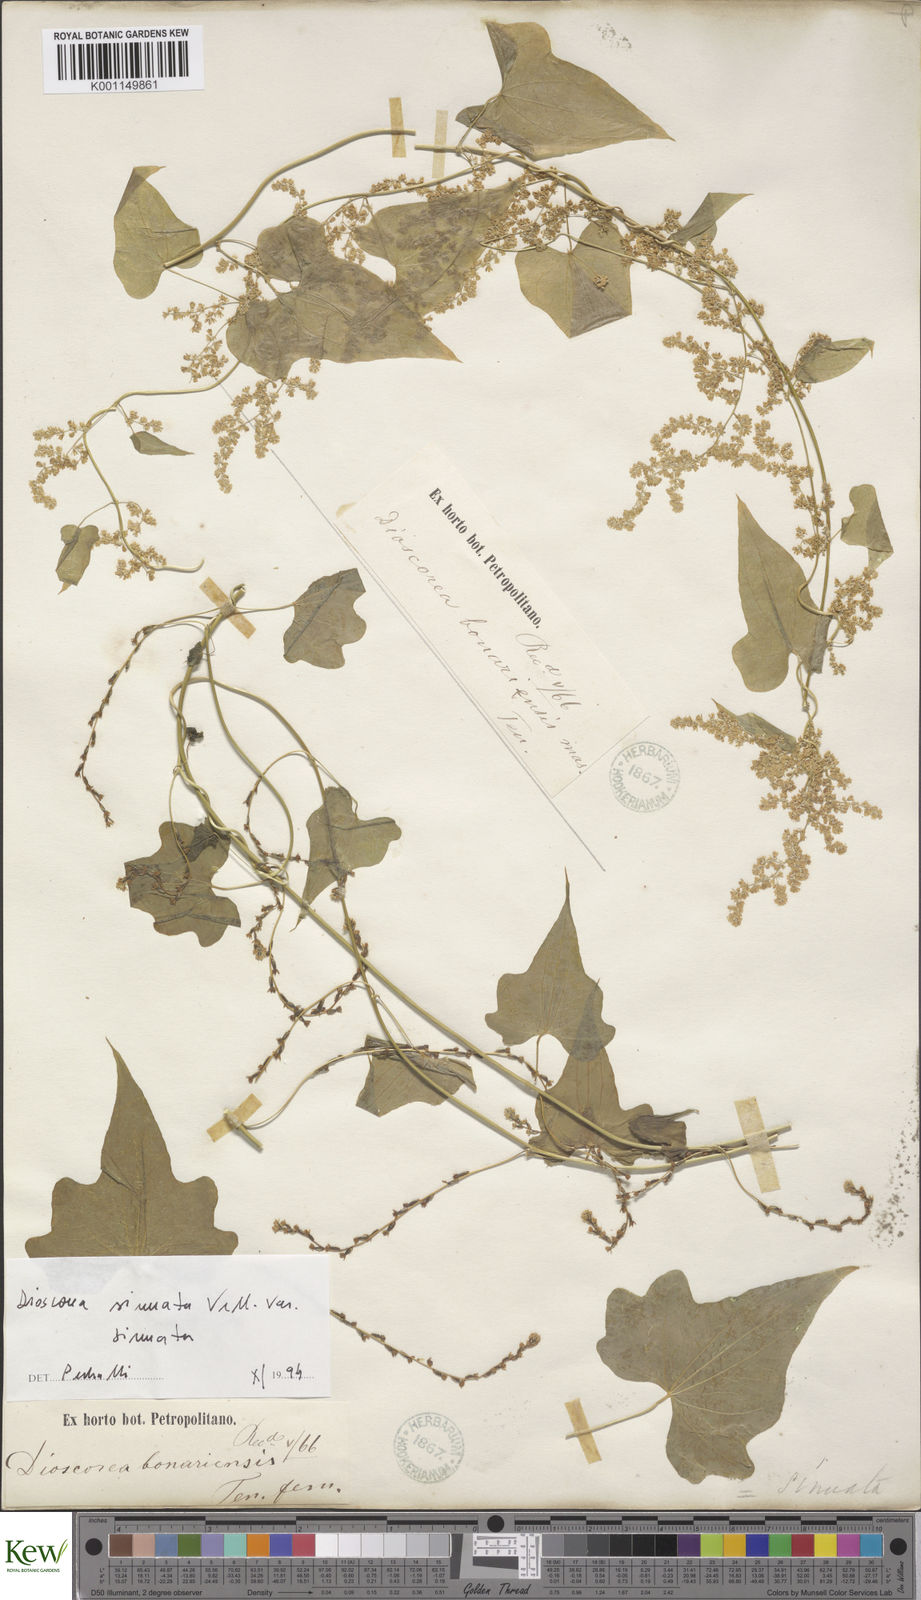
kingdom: Plantae
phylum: Tracheophyta
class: Liliopsida
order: Dioscoreales
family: Dioscoreaceae
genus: Dioscorea
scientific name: Dioscorea sinuata
